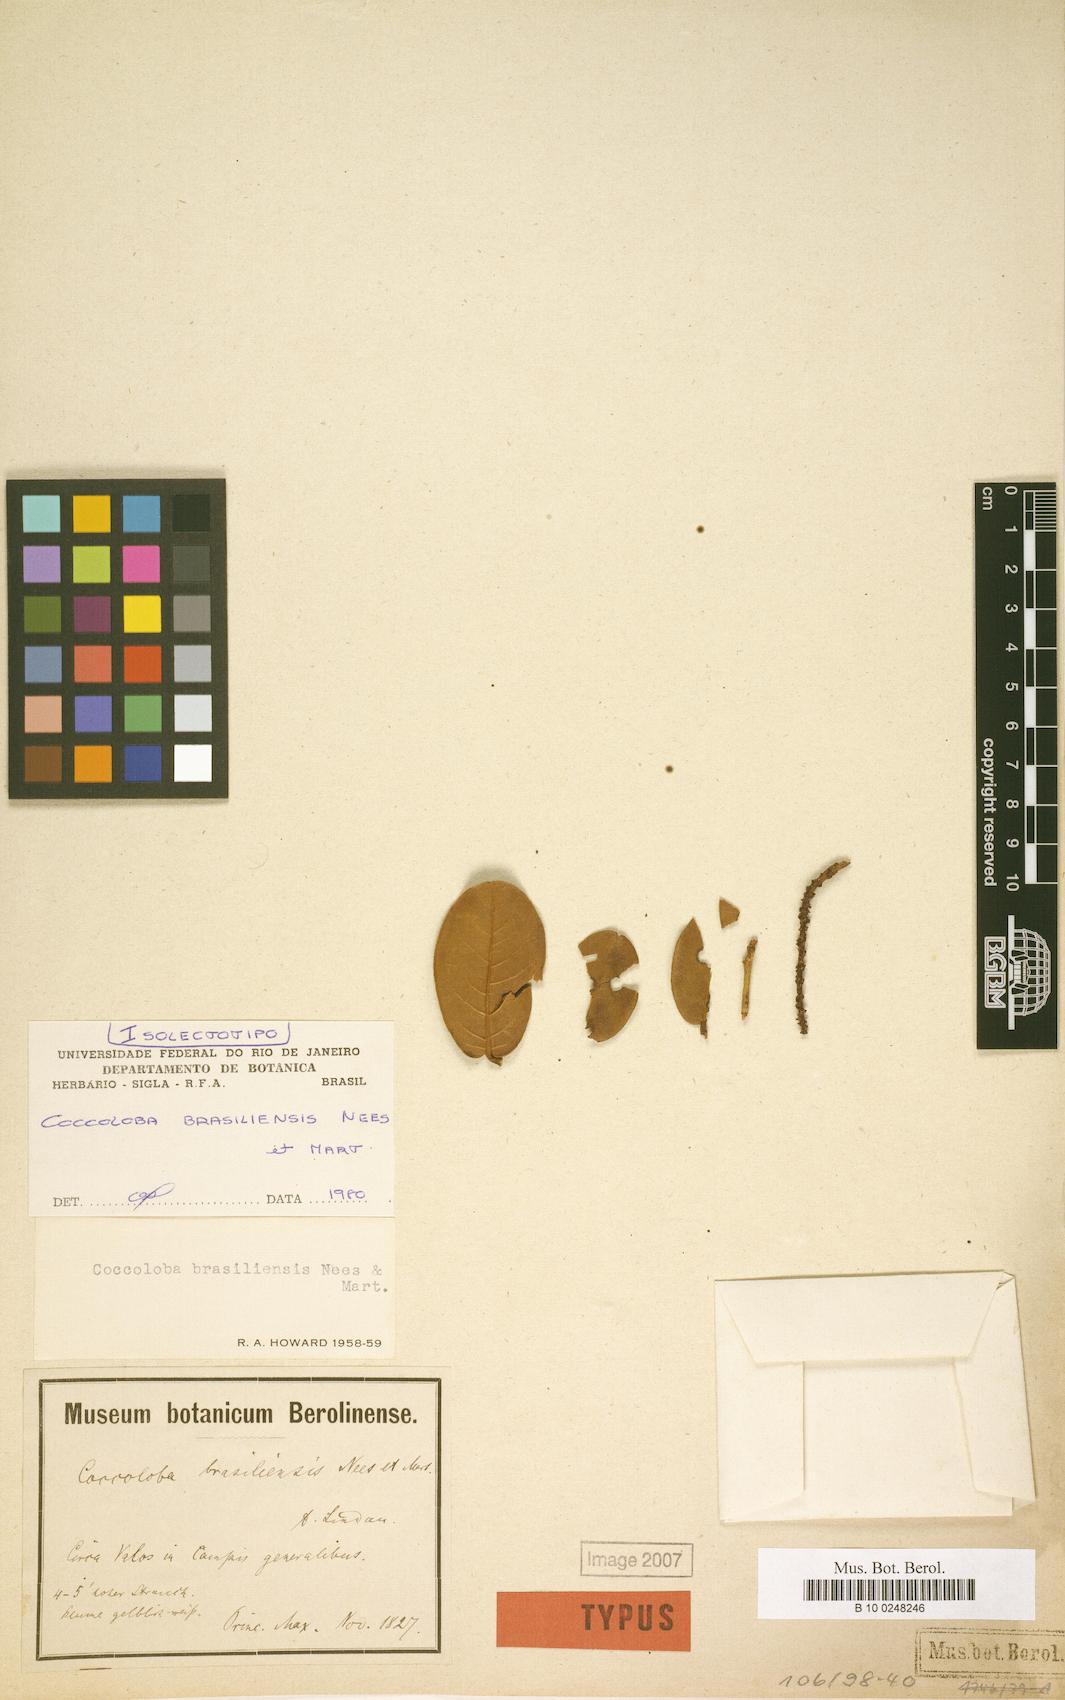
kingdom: Plantae
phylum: Tracheophyta
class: Magnoliopsida
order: Caryophyllales
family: Polygonaceae
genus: Coccoloba
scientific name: Coccoloba brasiliensis
